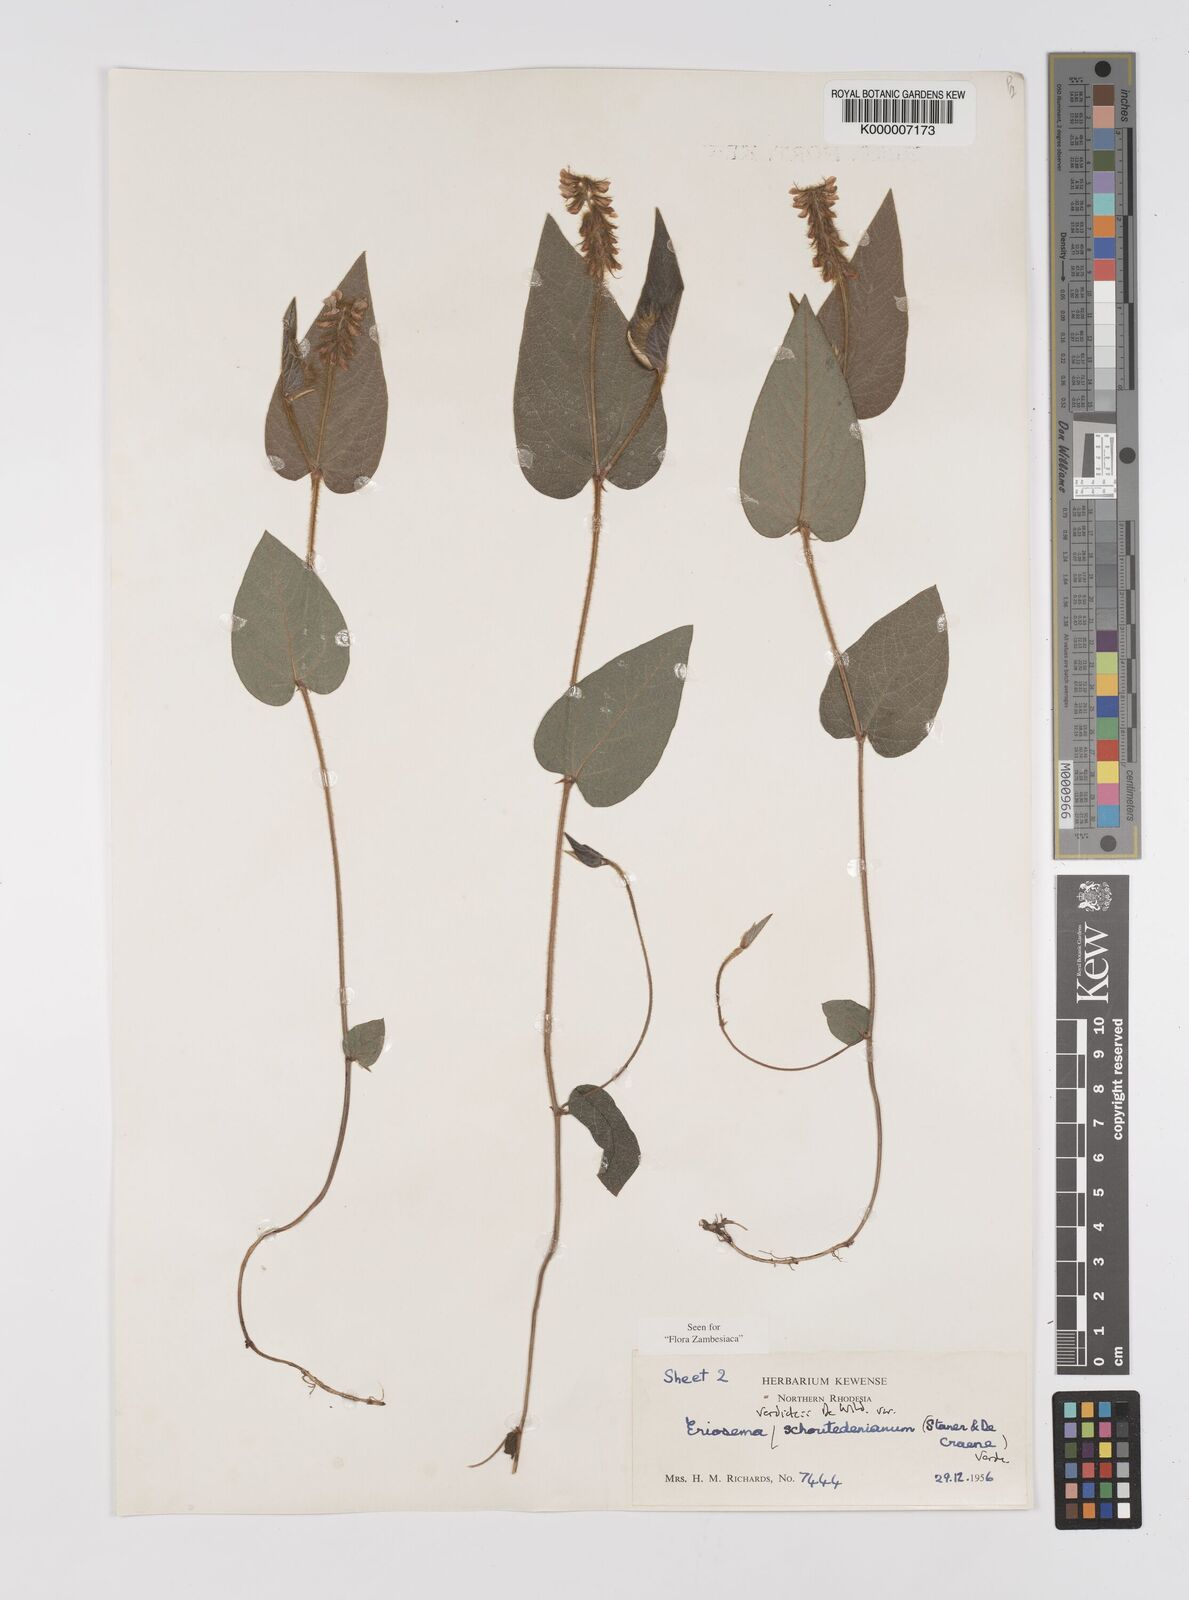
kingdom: Plantae
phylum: Tracheophyta
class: Magnoliopsida
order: Fabales
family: Fabaceae
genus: Eriosema
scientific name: Eriosema verdickii
